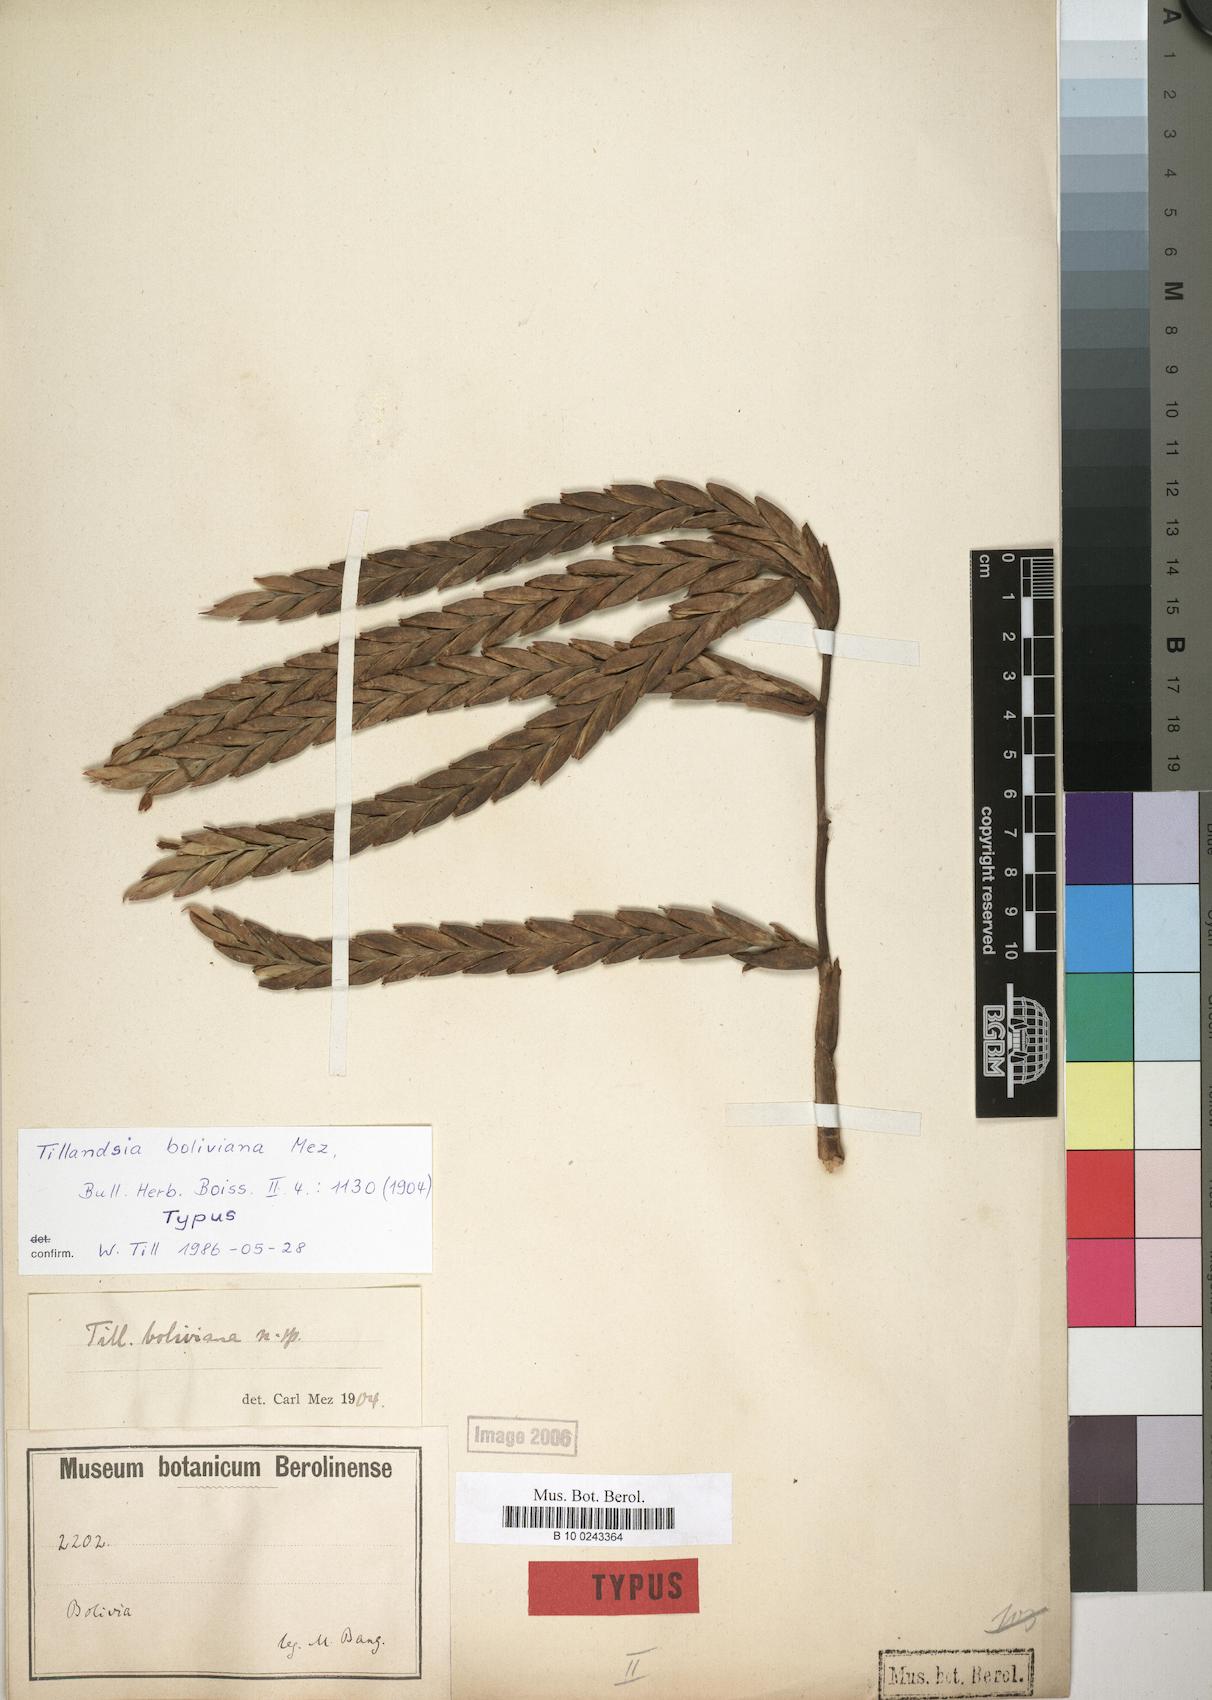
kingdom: Plantae
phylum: Tracheophyta
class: Liliopsida
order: Poales
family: Bromeliaceae
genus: Tillandsia
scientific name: Tillandsia boliviana
